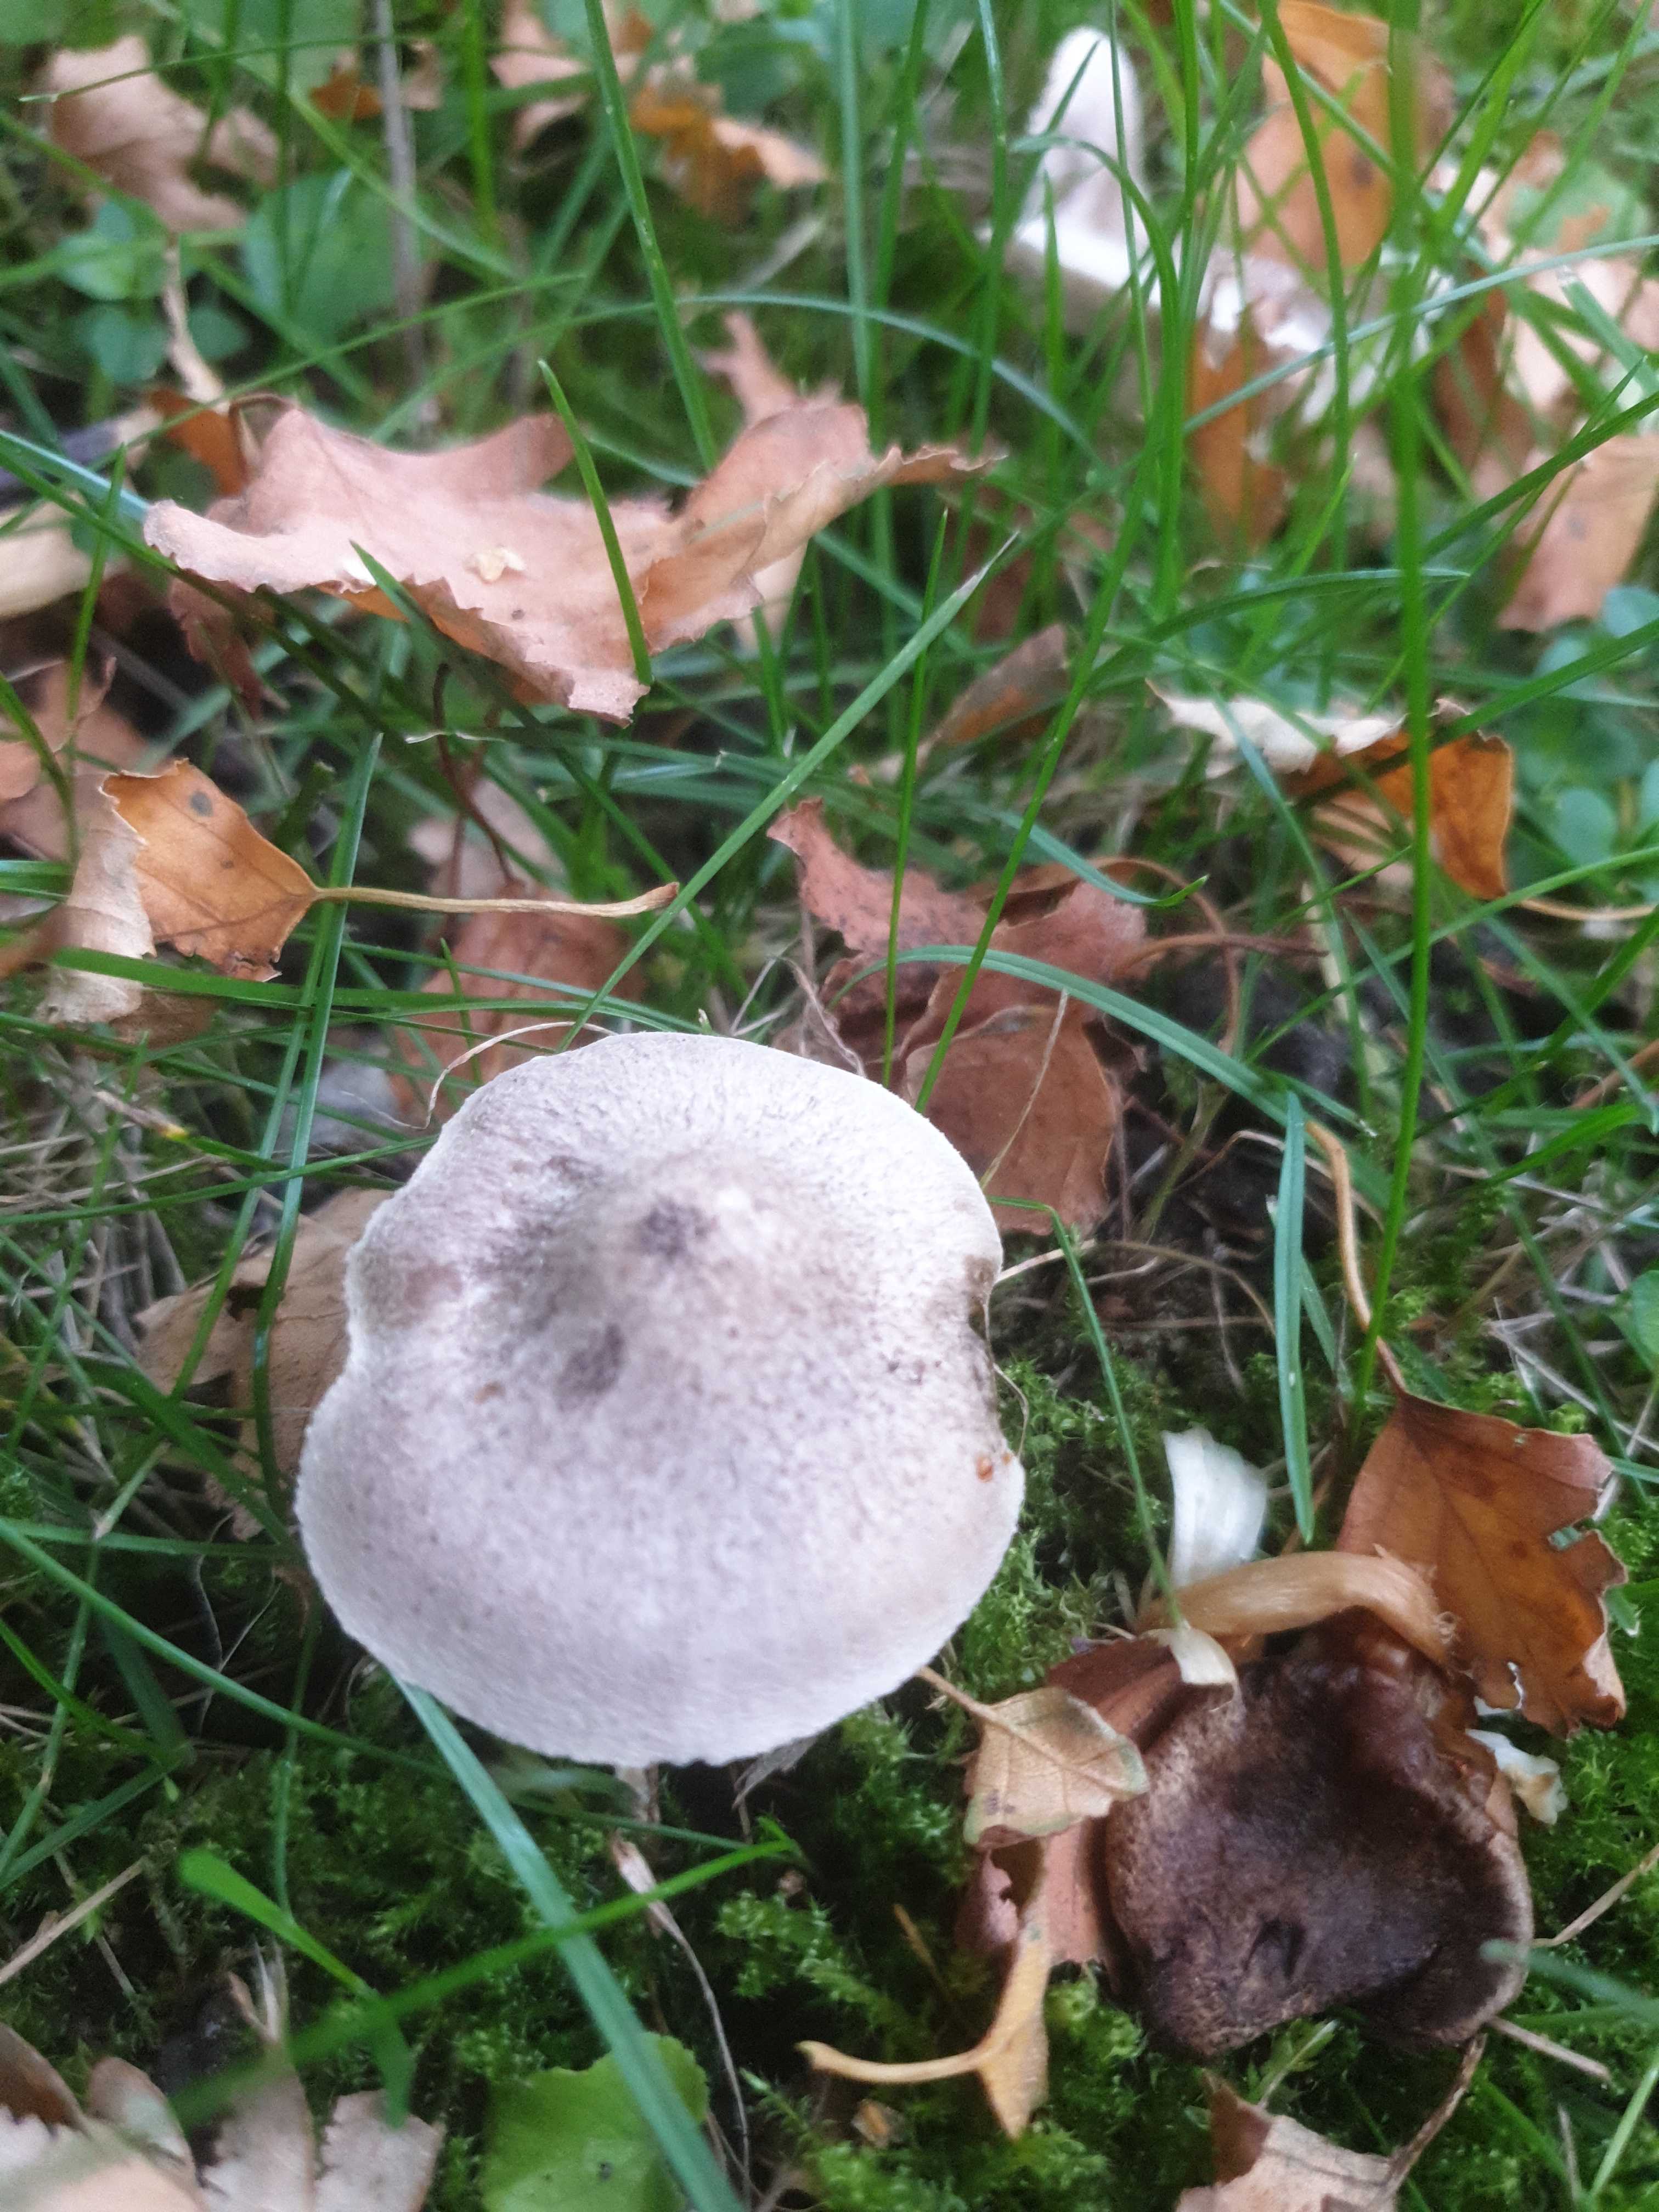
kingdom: Fungi
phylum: Basidiomycota
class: Agaricomycetes
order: Agaricales
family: Tricholomataceae
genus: Tricholoma
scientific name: Tricholoma
